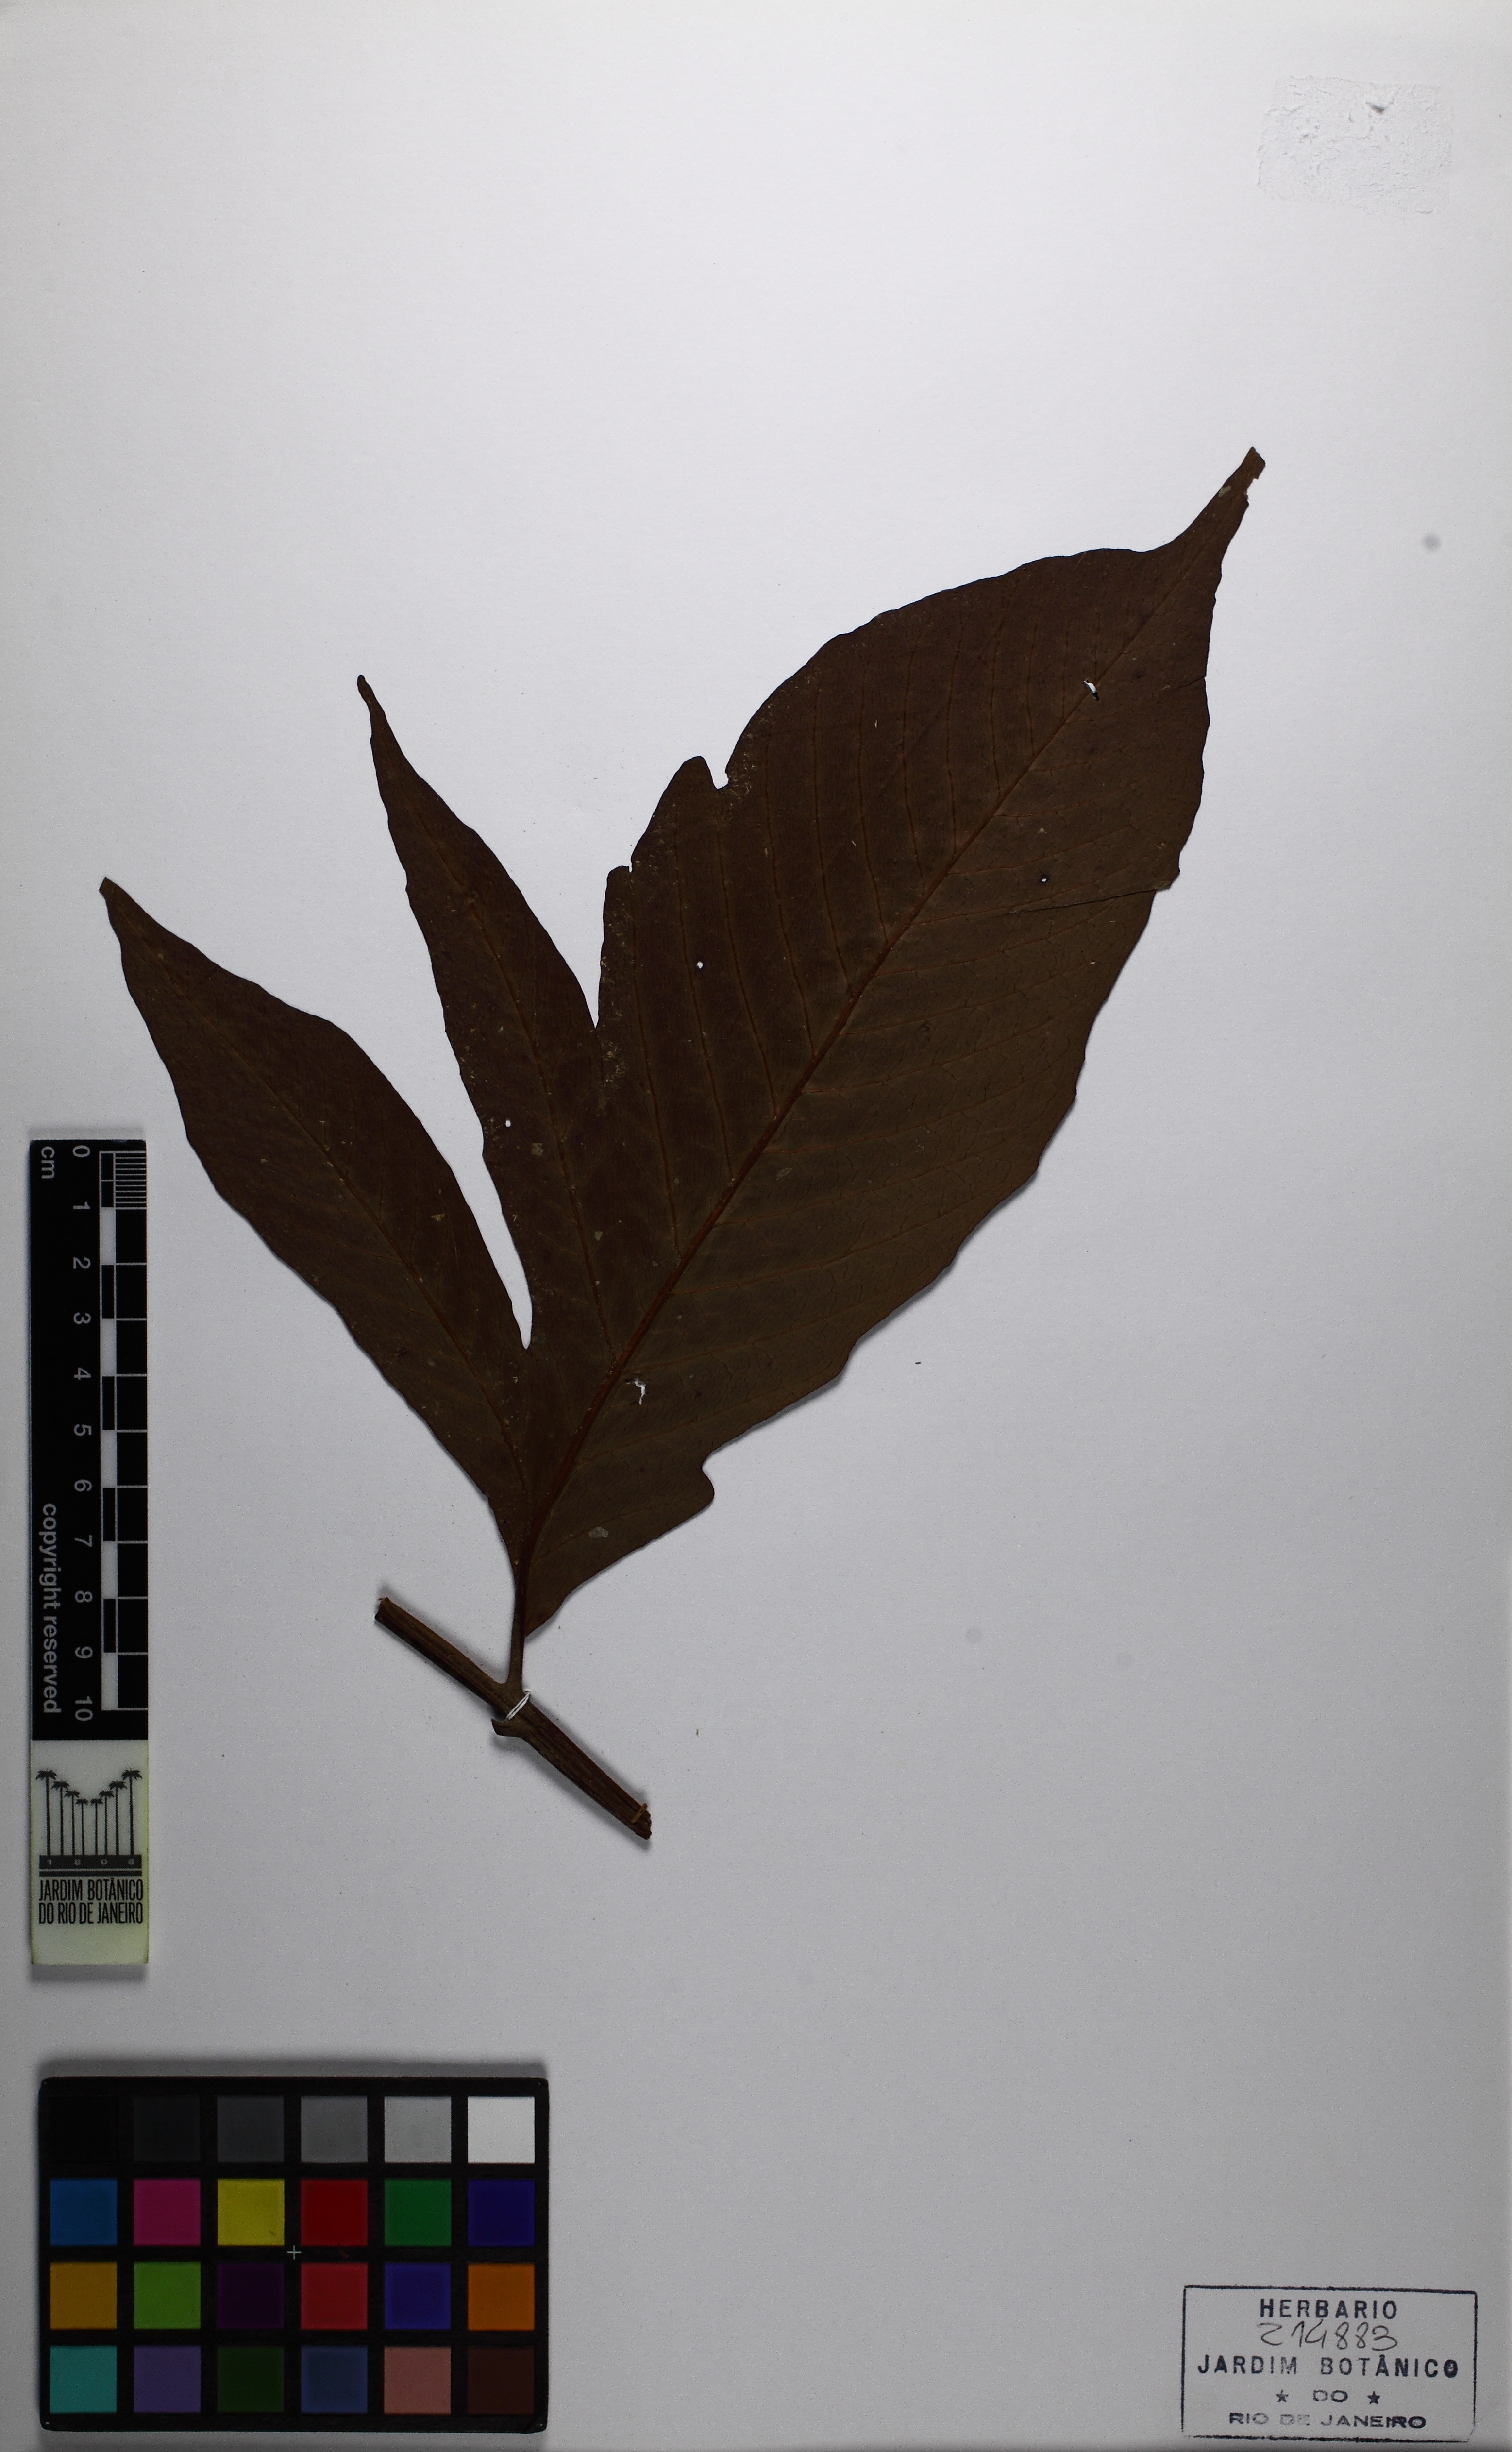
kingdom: Plantae
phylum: Tracheophyta
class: Polypodiopsida
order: Polypodiales
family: Tectariaceae
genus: Tectaria
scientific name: Tectaria antioquiana
